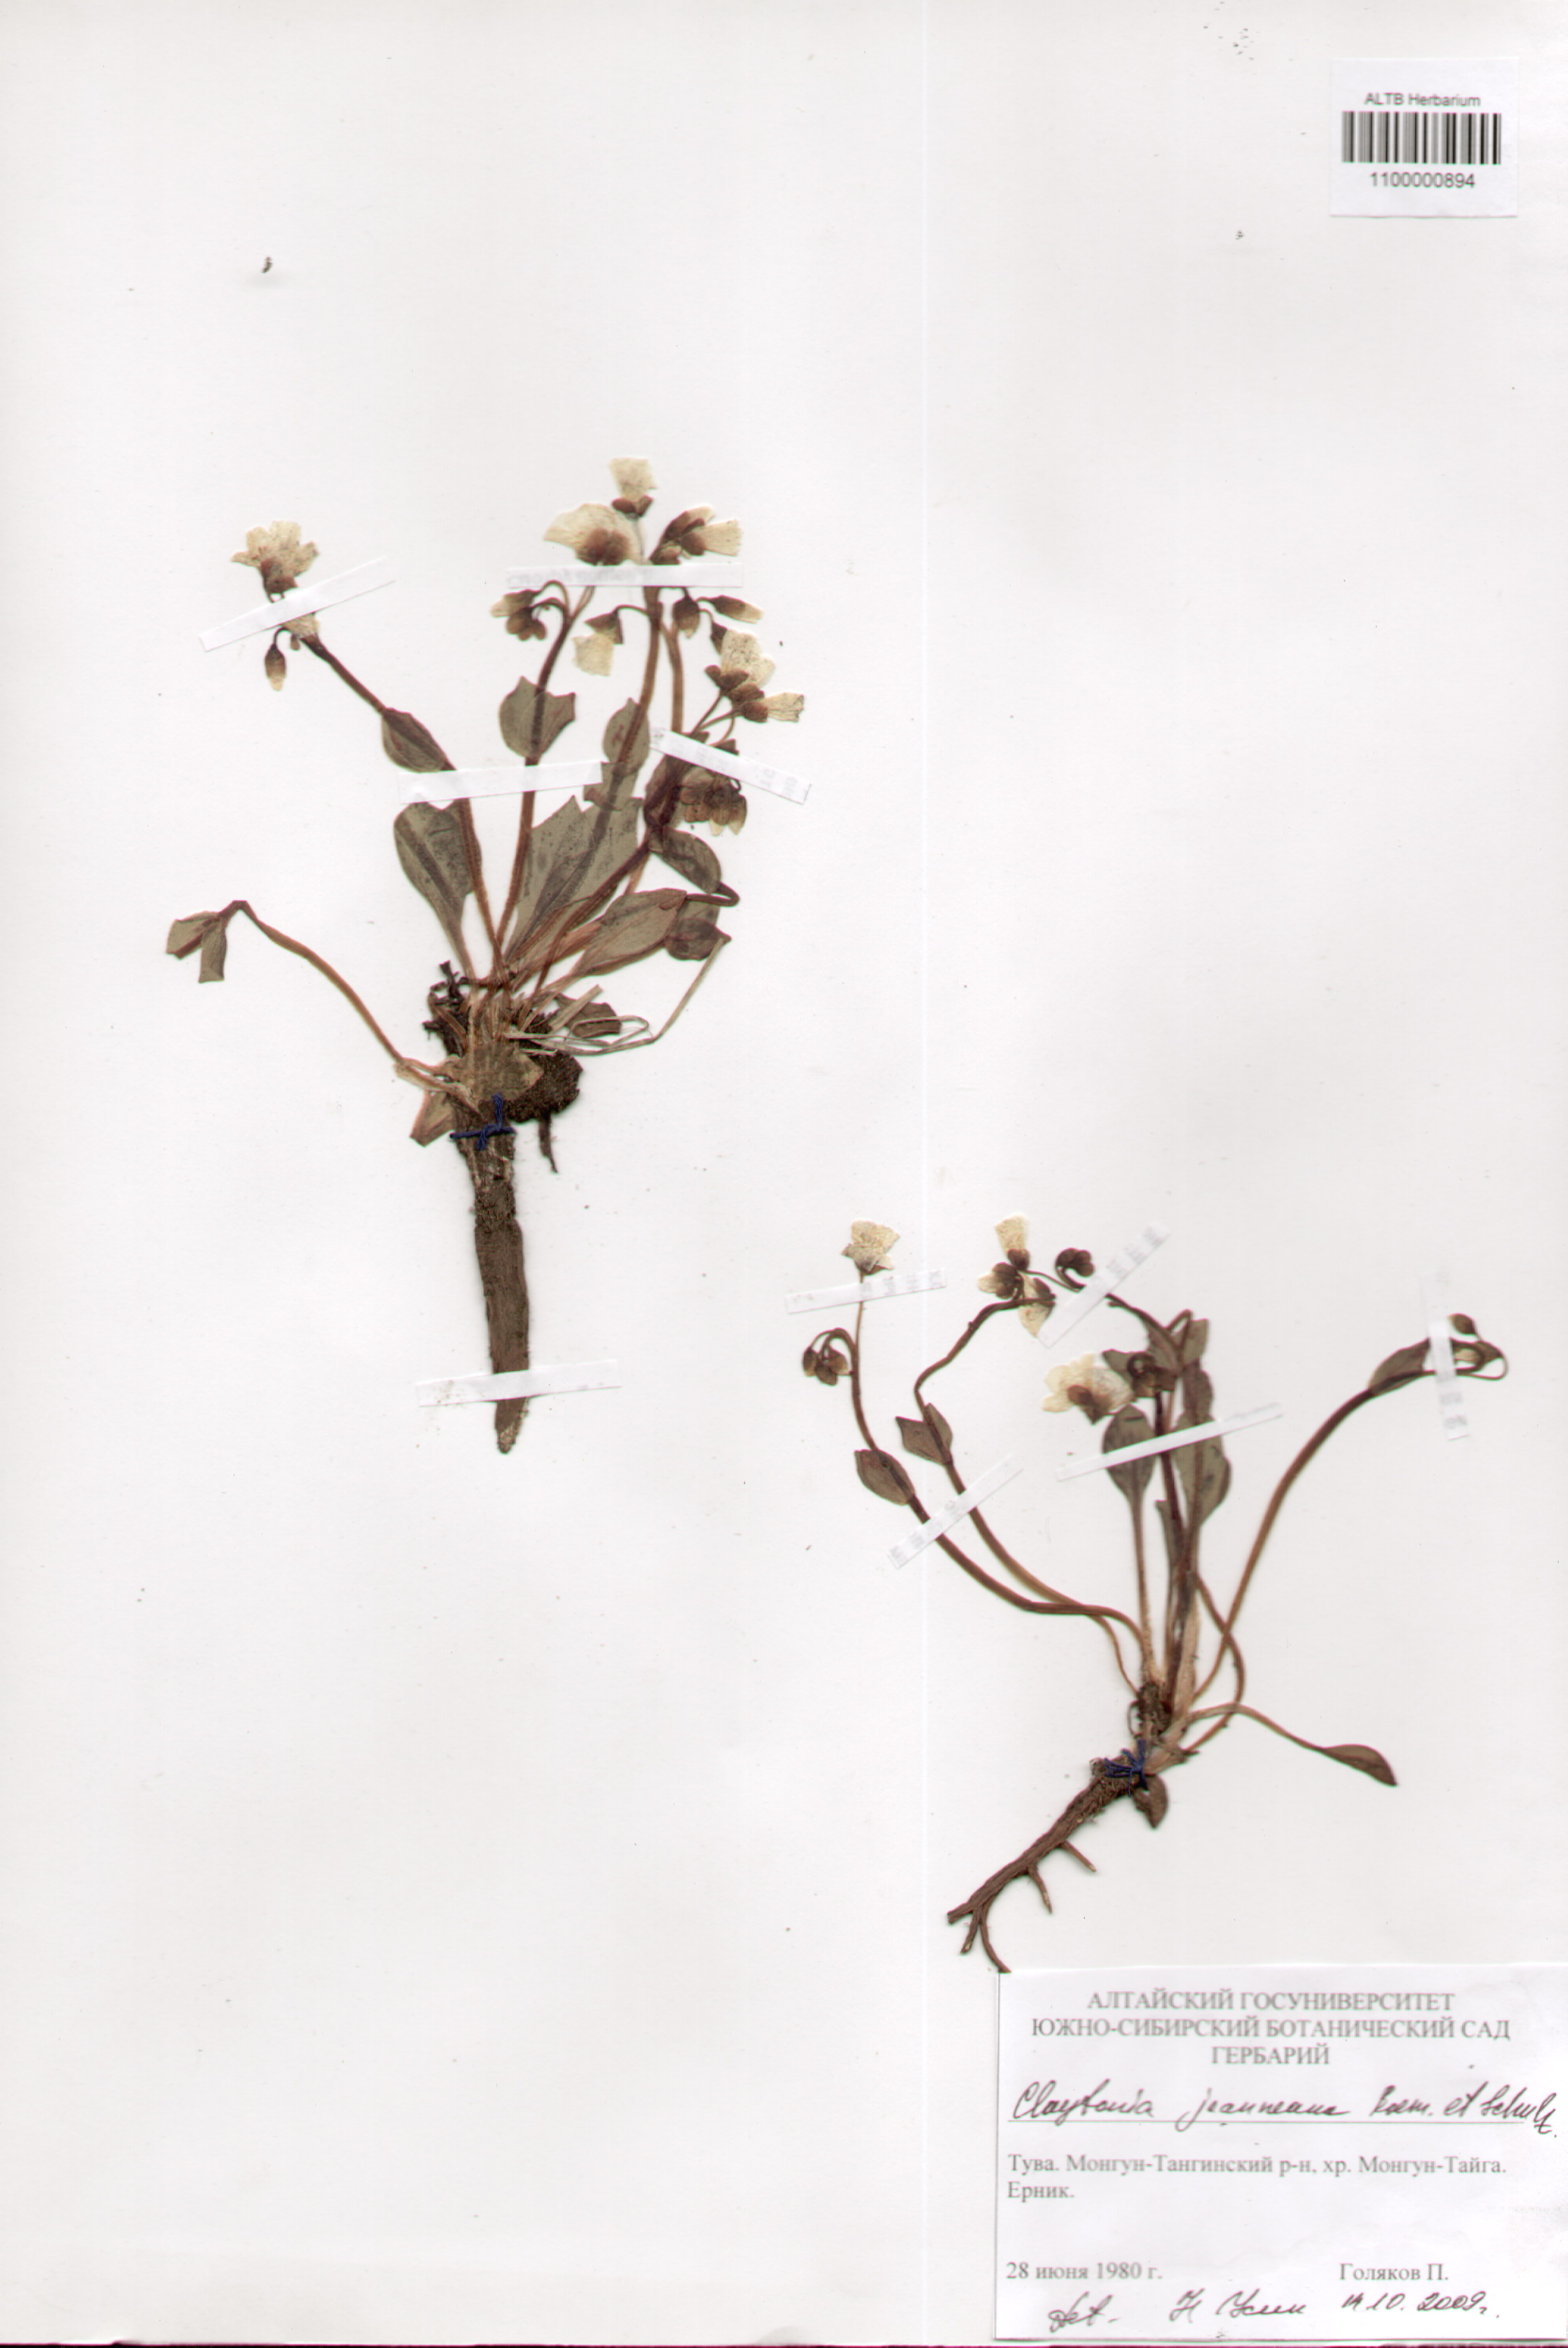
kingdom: Plantae
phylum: Tracheophyta
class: Magnoliopsida
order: Caryophyllales
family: Montiaceae
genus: Claytonia
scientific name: Claytonia joanneana
